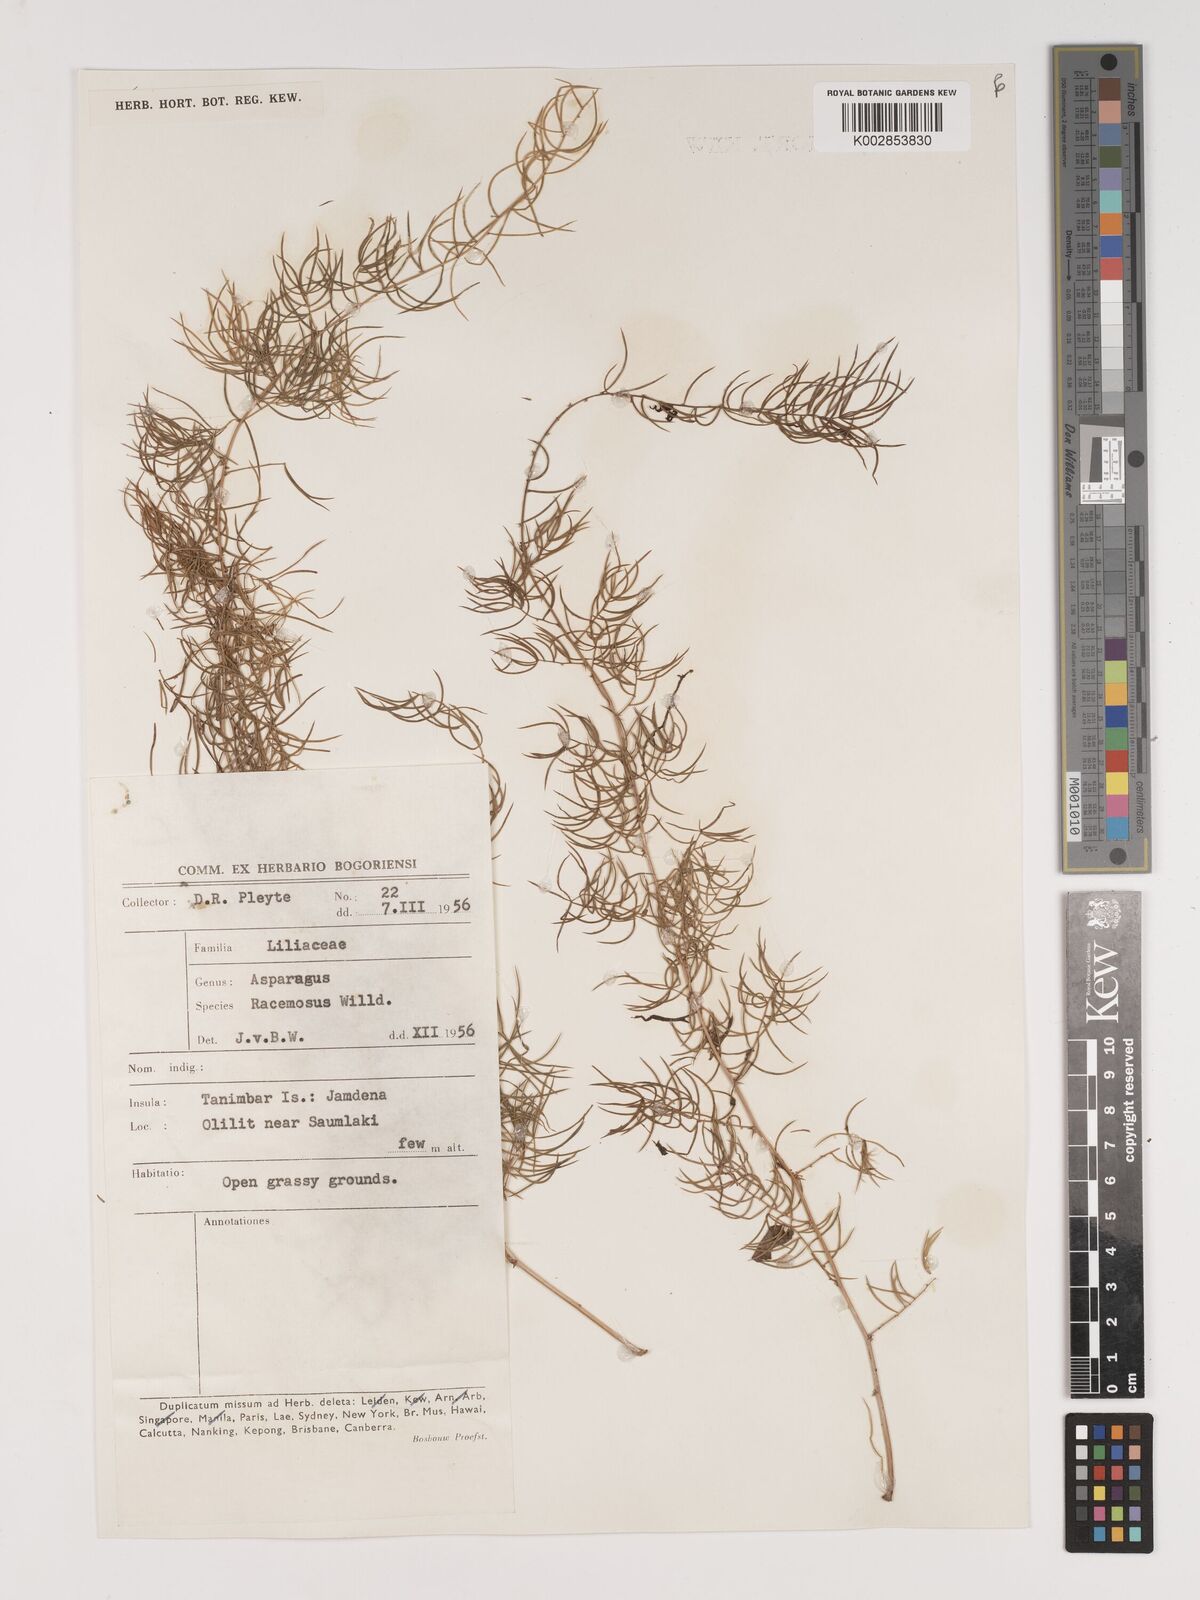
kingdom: Plantae
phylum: Tracheophyta
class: Liliopsida
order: Asparagales
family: Asparagaceae
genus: Asparagus
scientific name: Asparagus racemosus
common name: Asparagus-fern
